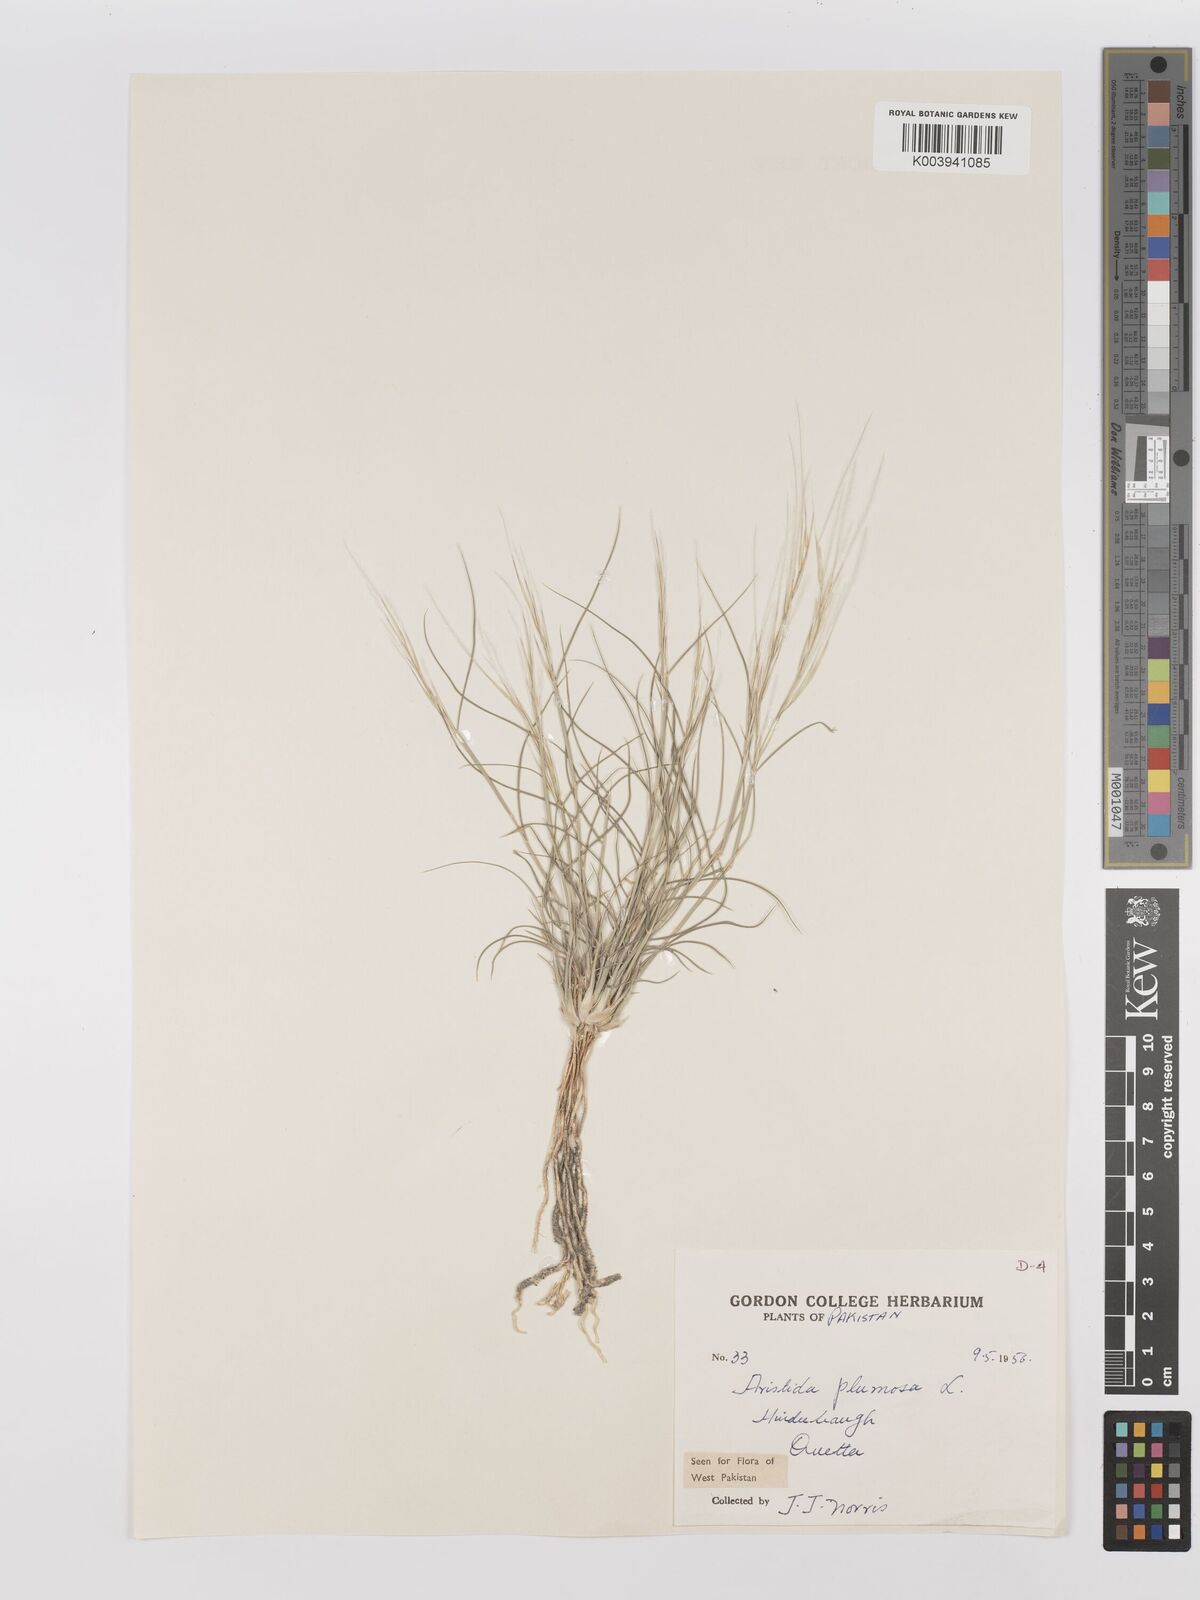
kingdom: Plantae
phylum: Tracheophyta
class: Liliopsida
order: Poales
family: Poaceae
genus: Stipagrostis
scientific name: Stipagrostis plumosa
